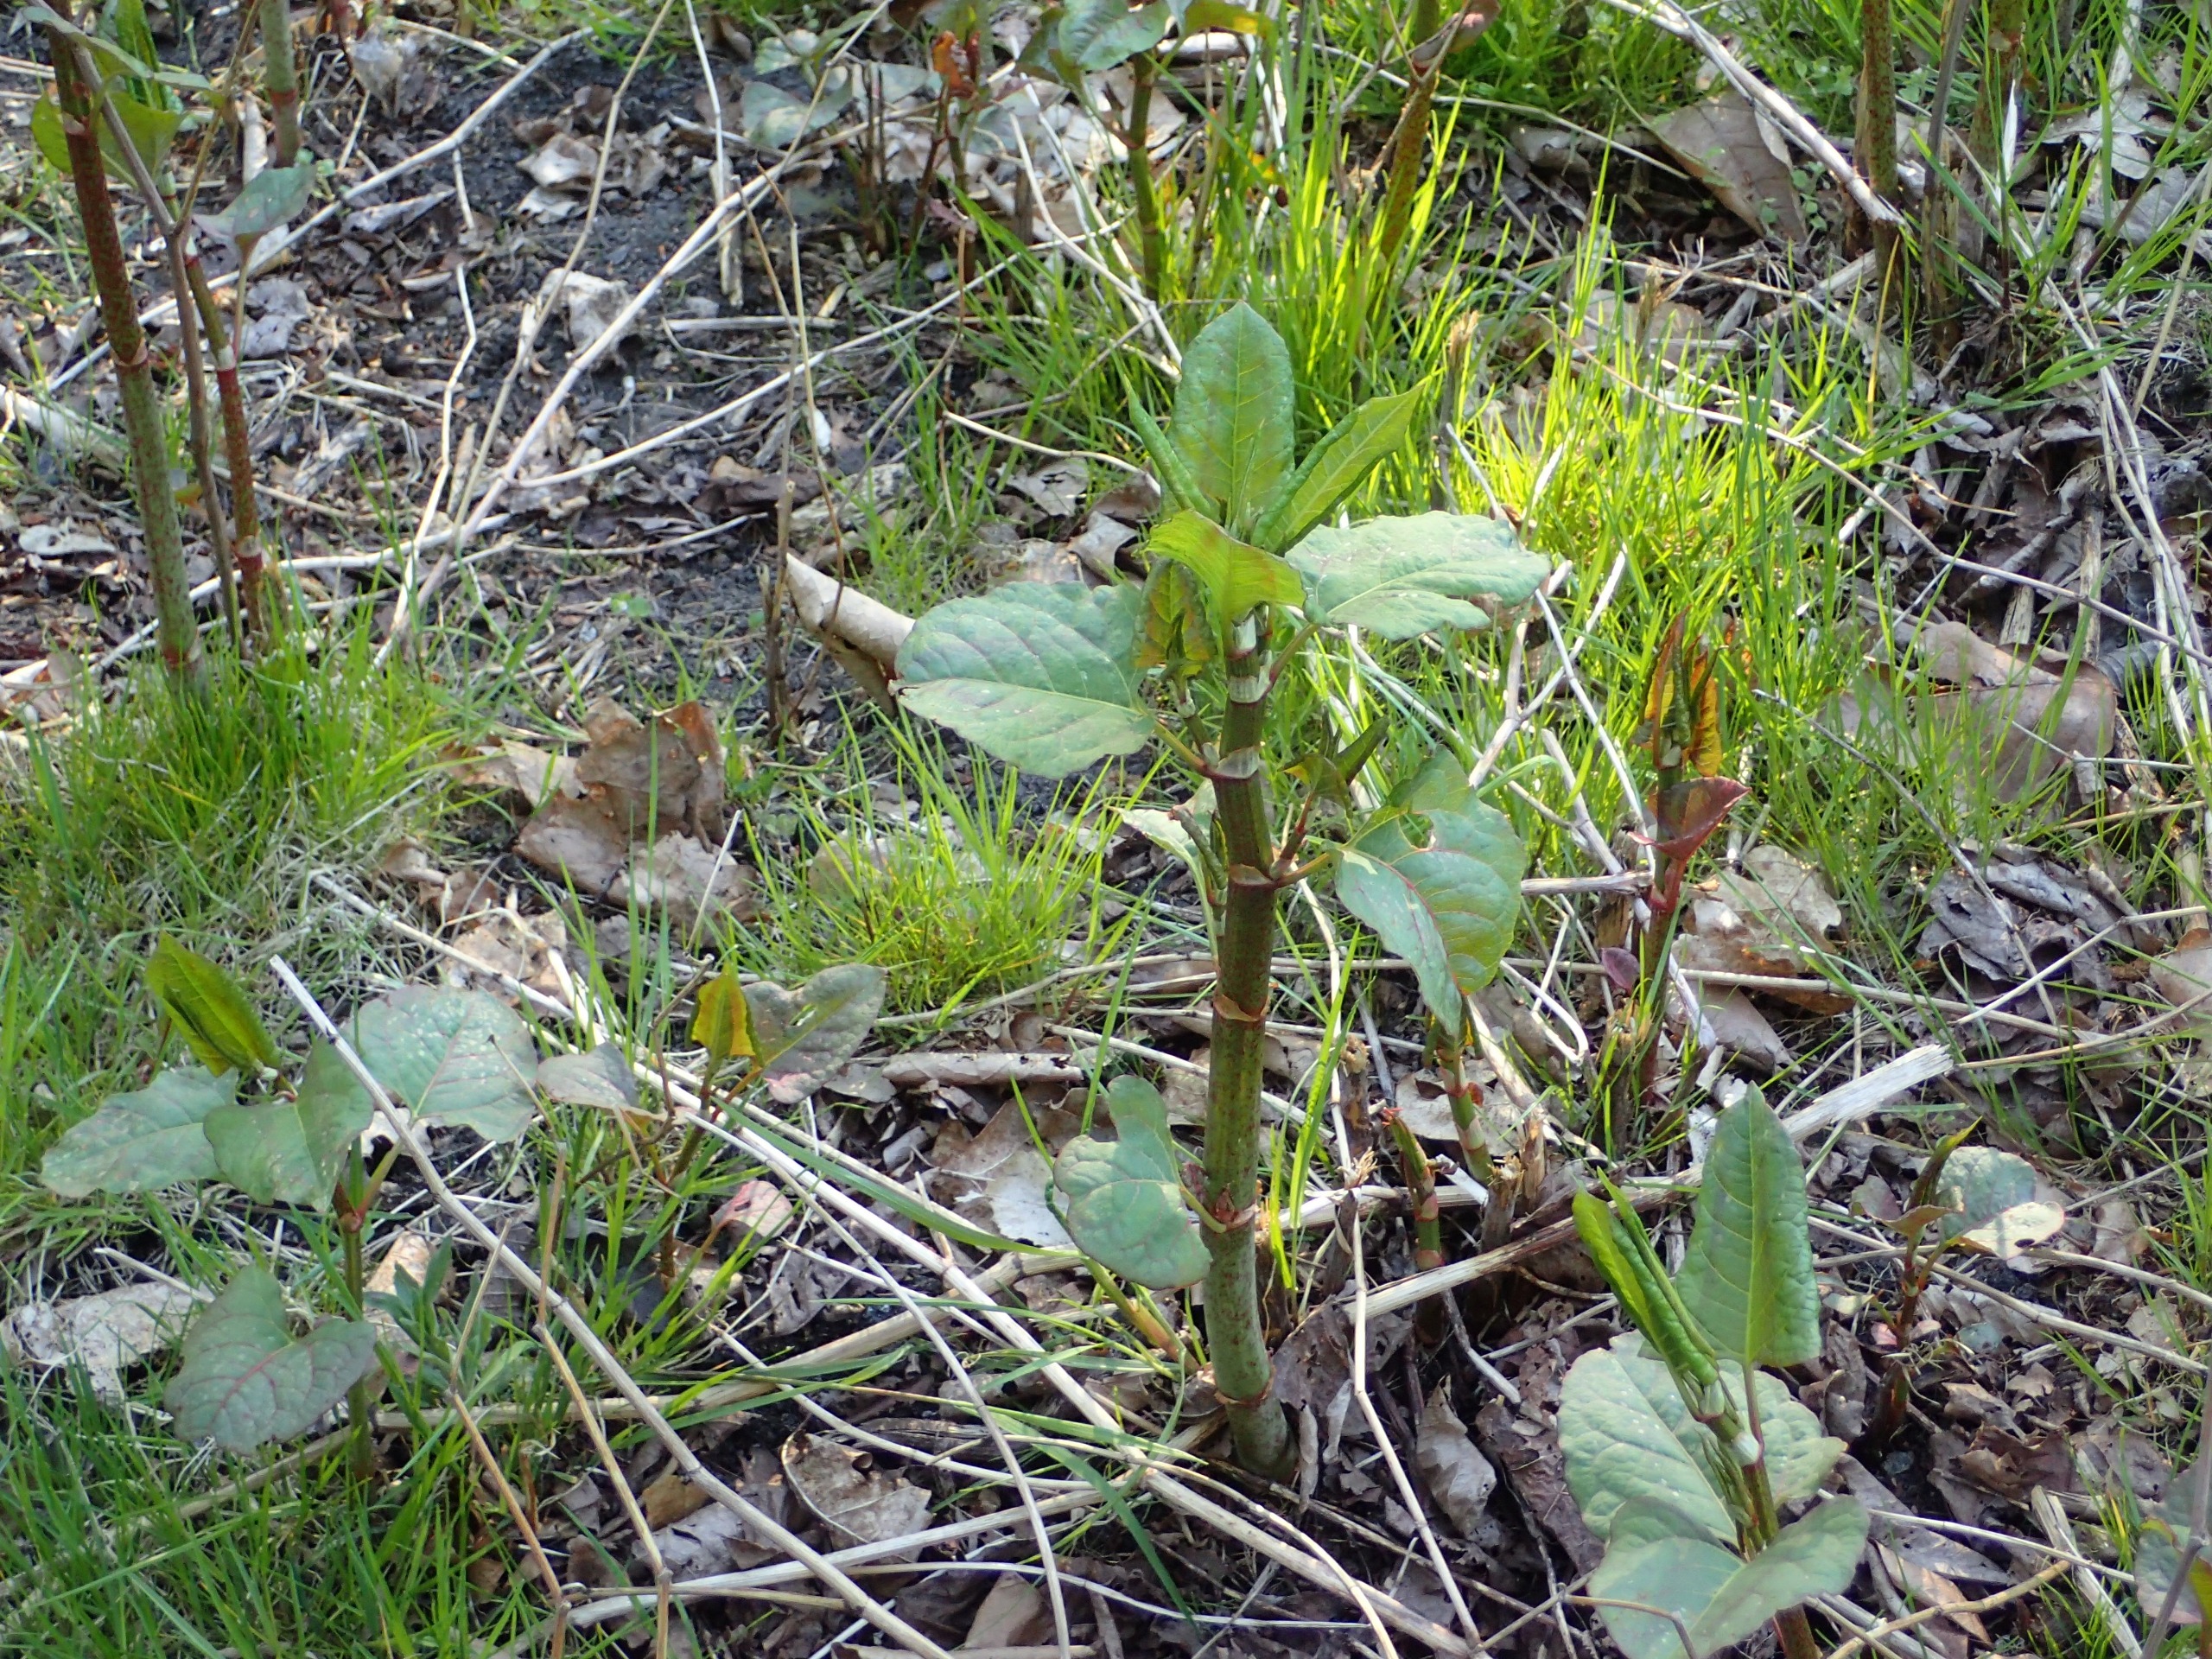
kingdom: Plantae
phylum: Tracheophyta
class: Magnoliopsida
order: Caryophyllales
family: Polygonaceae
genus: Reynoutria
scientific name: Reynoutria japonica
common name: Japan-pileurt
